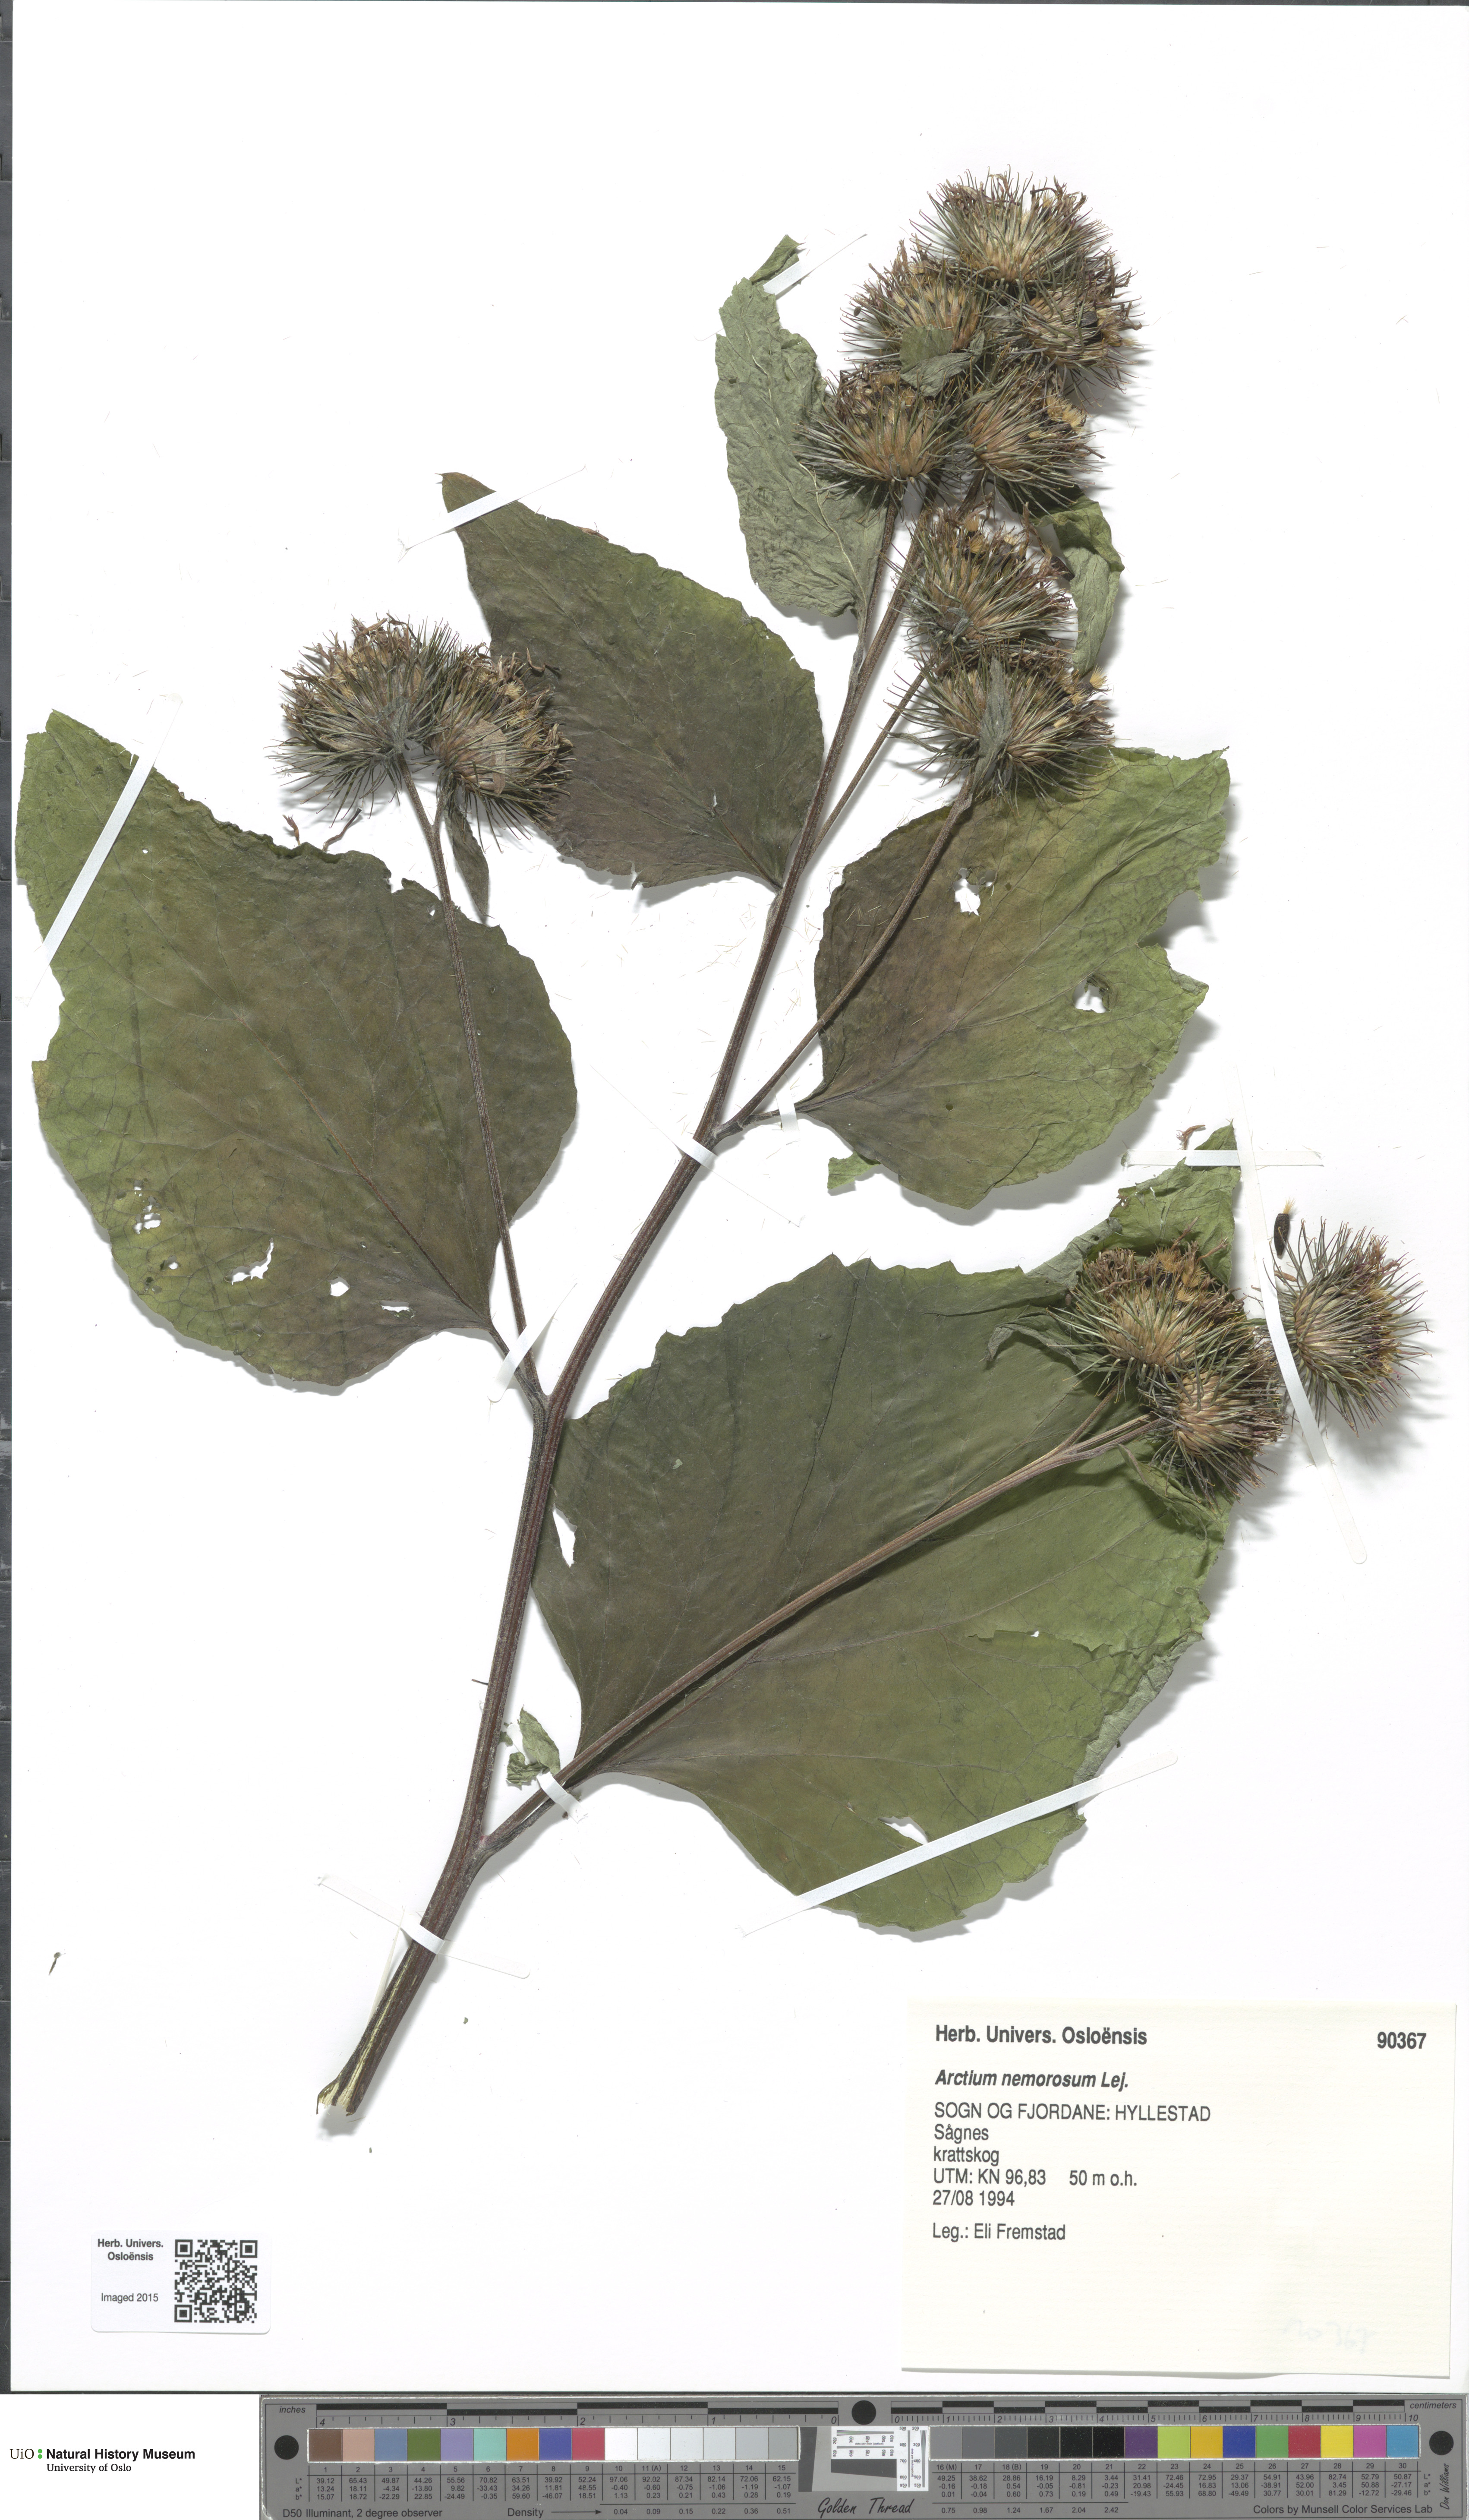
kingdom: Plantae
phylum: Tracheophyta
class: Magnoliopsida
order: Asterales
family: Asteraceae
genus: Arctium
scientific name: Arctium nemorosum
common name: Wood burdock
